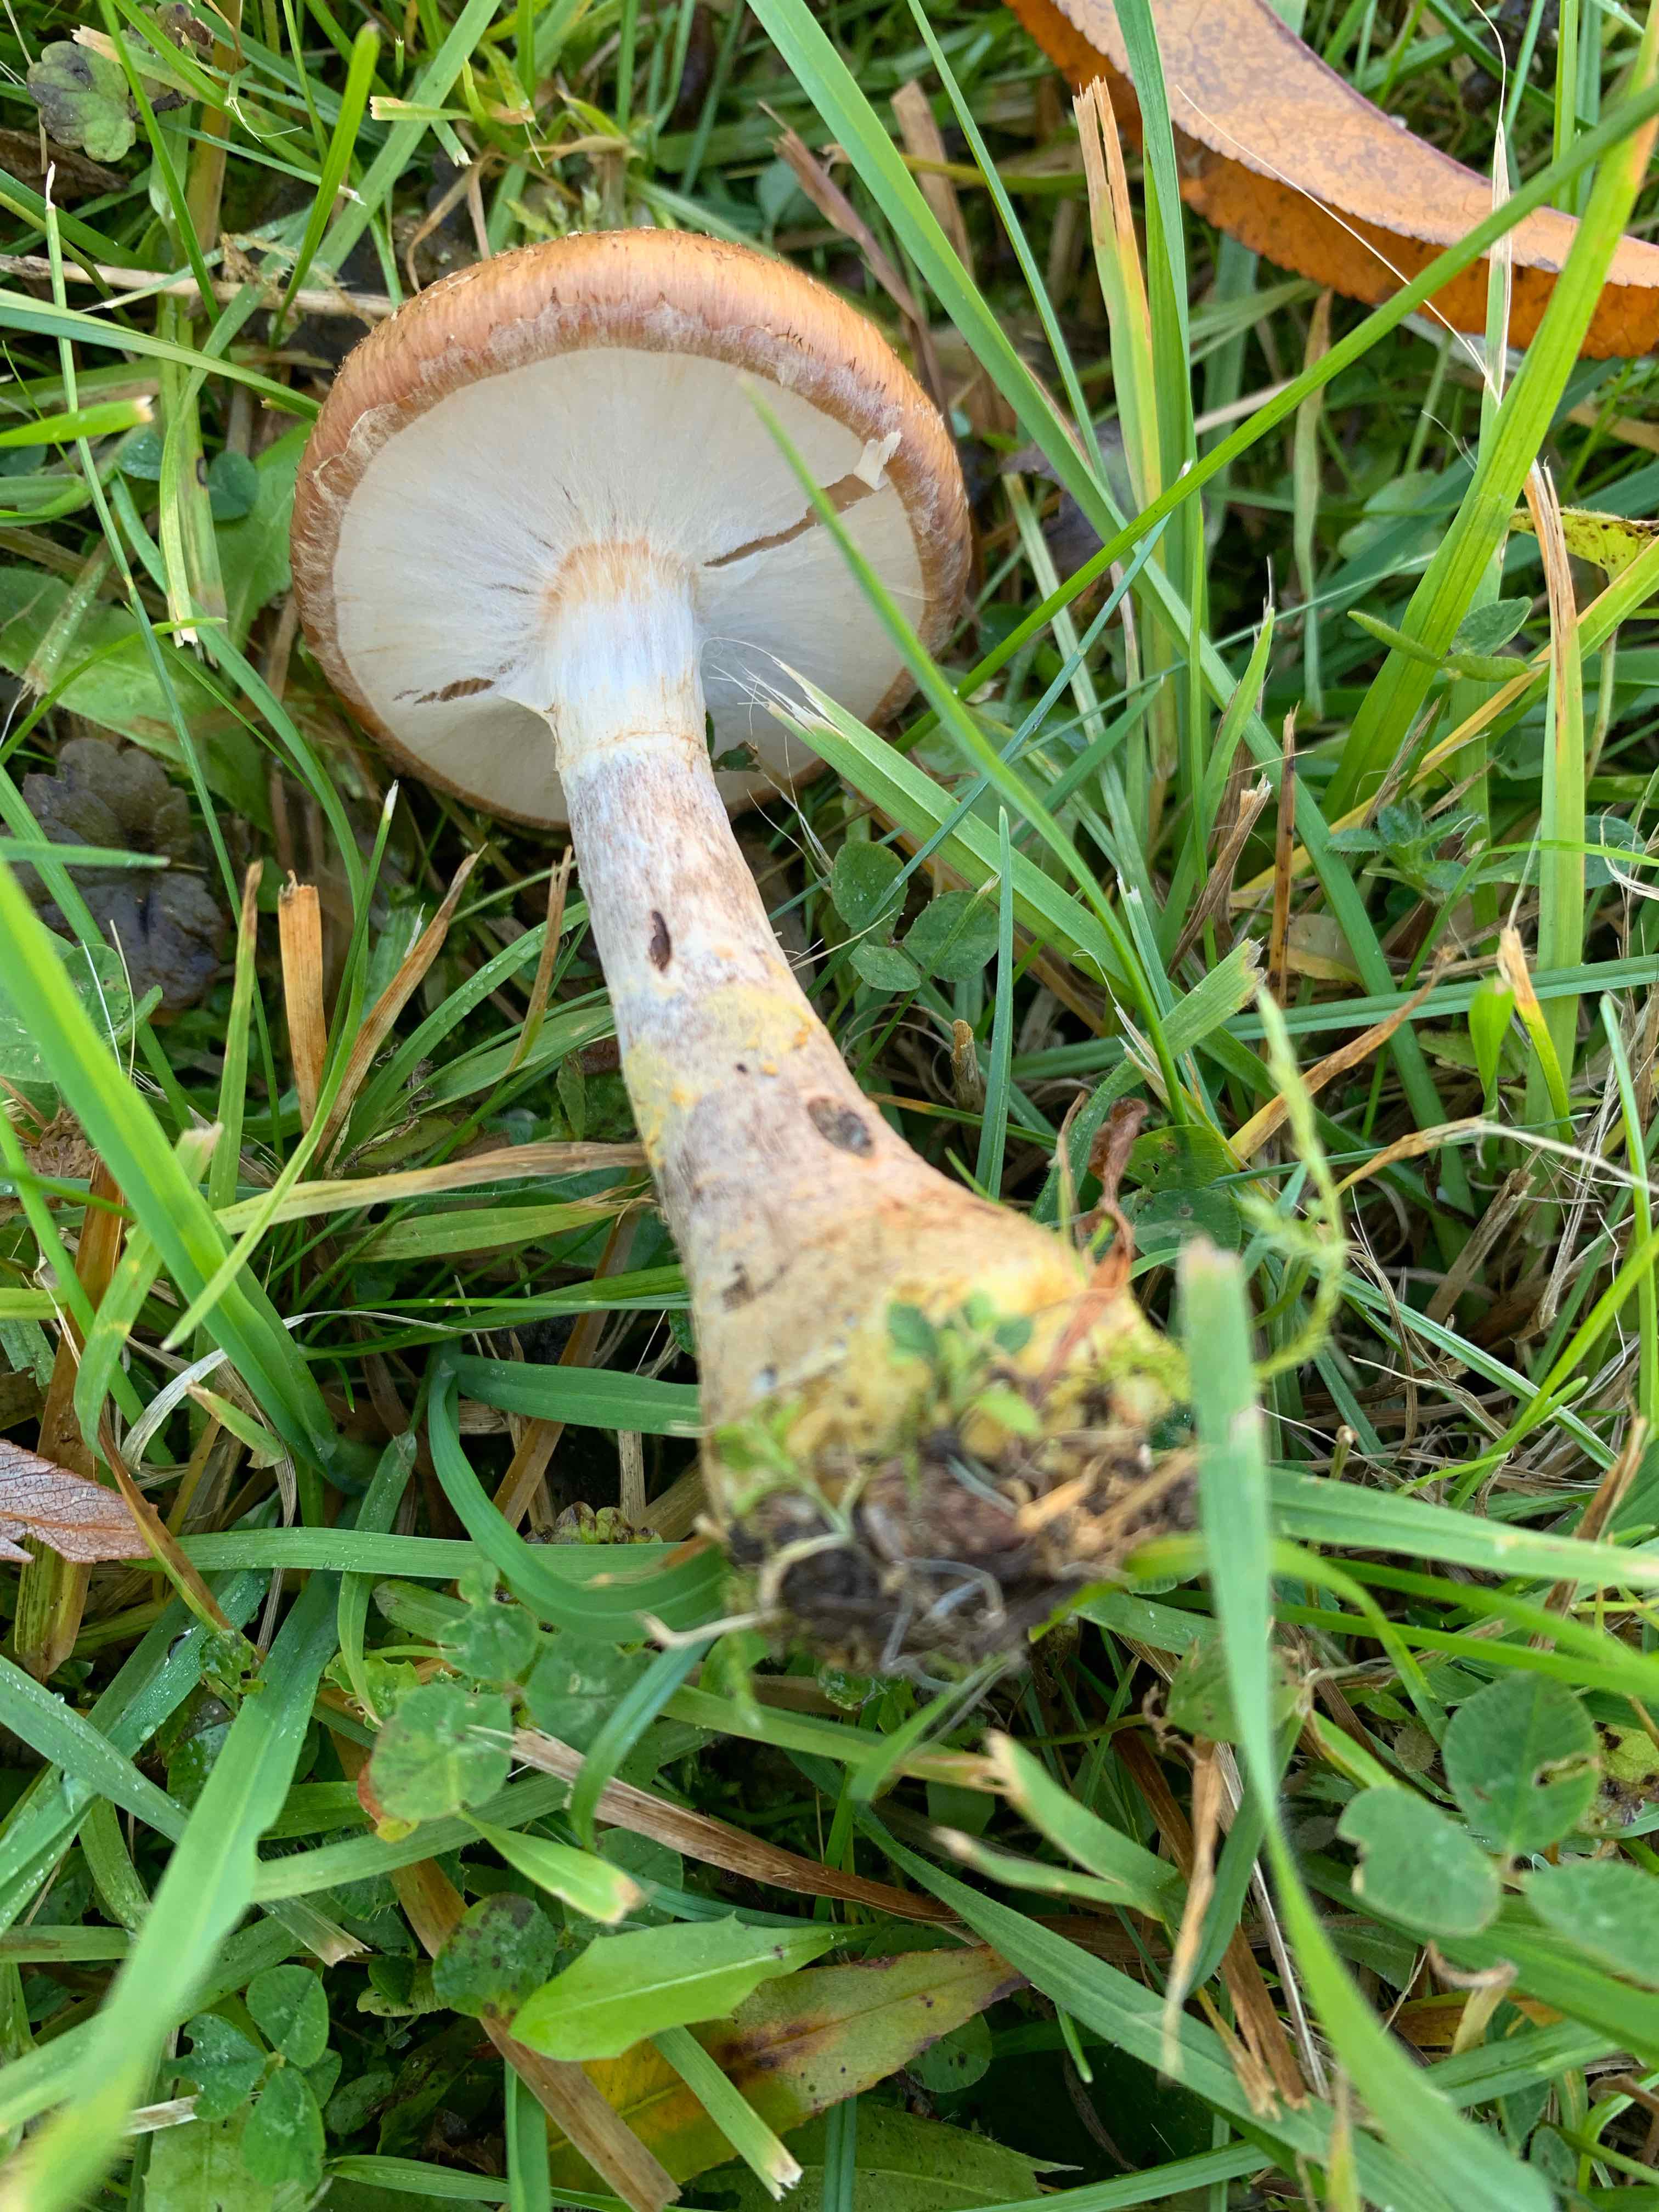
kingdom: Fungi
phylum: Basidiomycota
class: Agaricomycetes
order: Agaricales
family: Physalacriaceae
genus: Armillaria
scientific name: Armillaria lutea
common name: køllestokket honningsvamp
